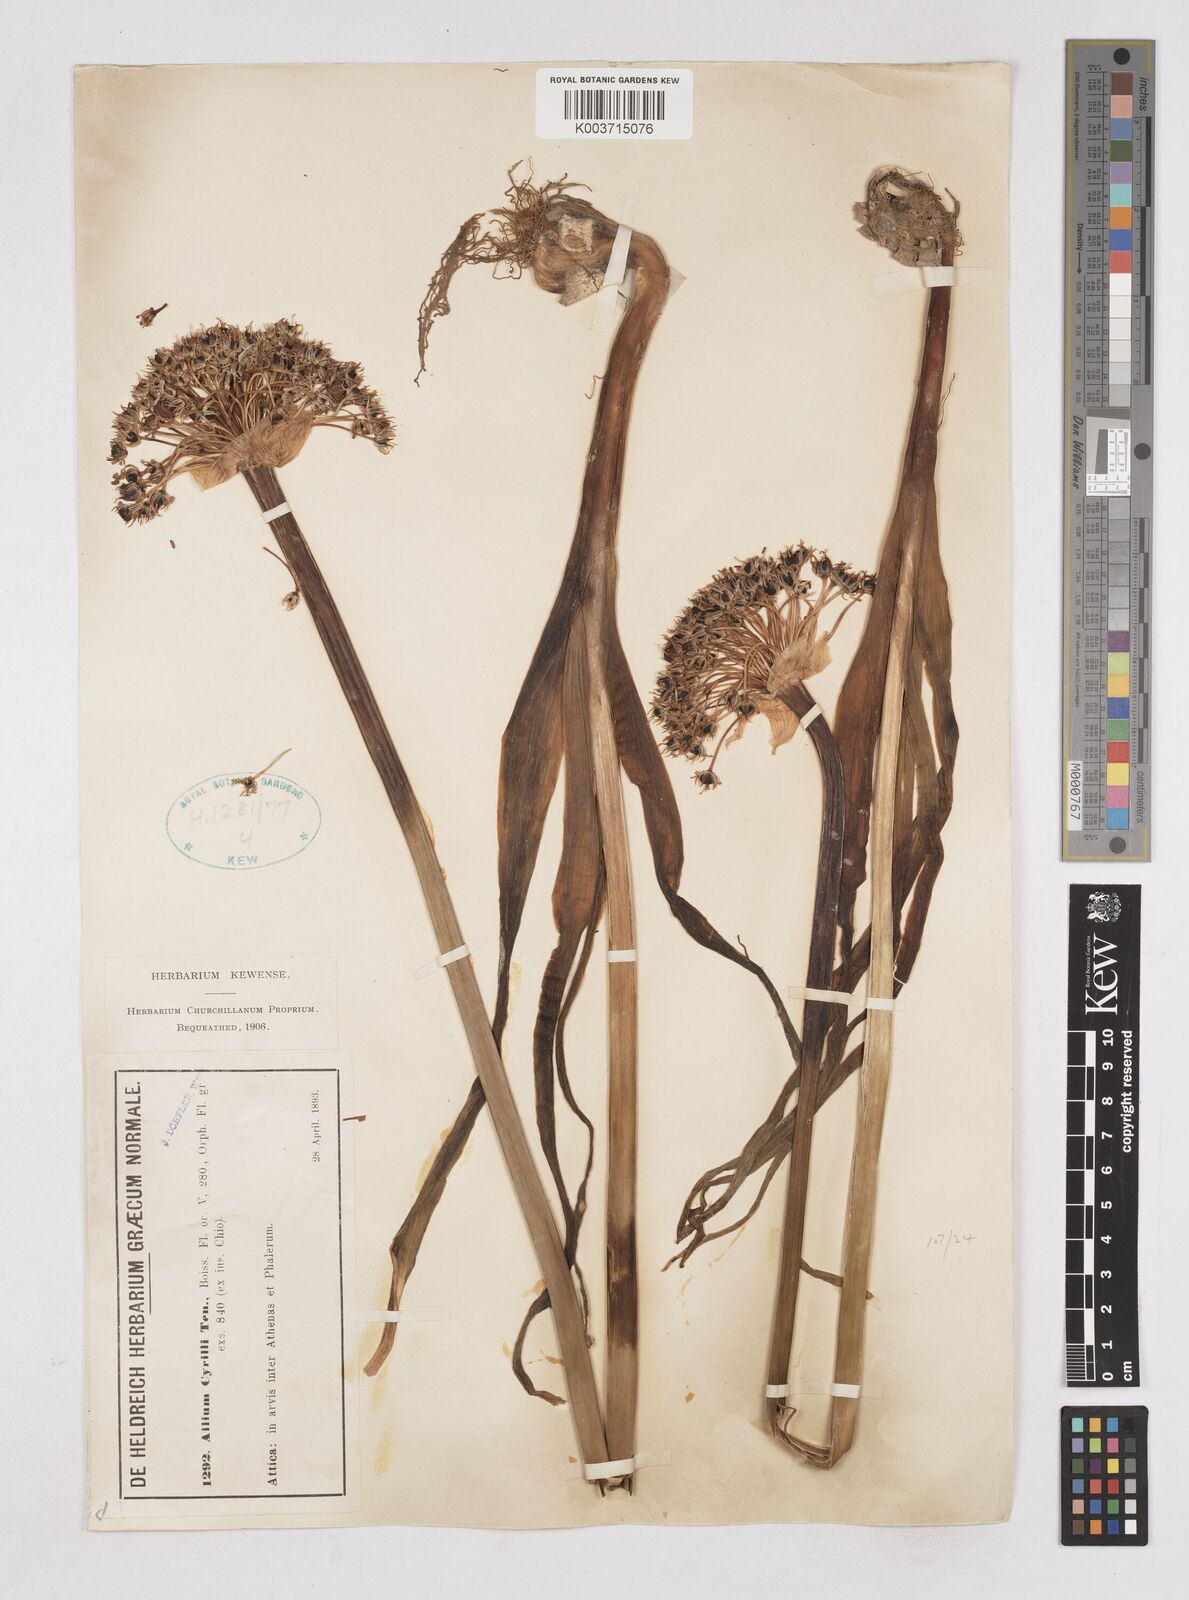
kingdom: Plantae
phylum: Tracheophyta
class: Liliopsida
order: Asparagales
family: Amaryllidaceae
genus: Allium
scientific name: Allium cyrilli
